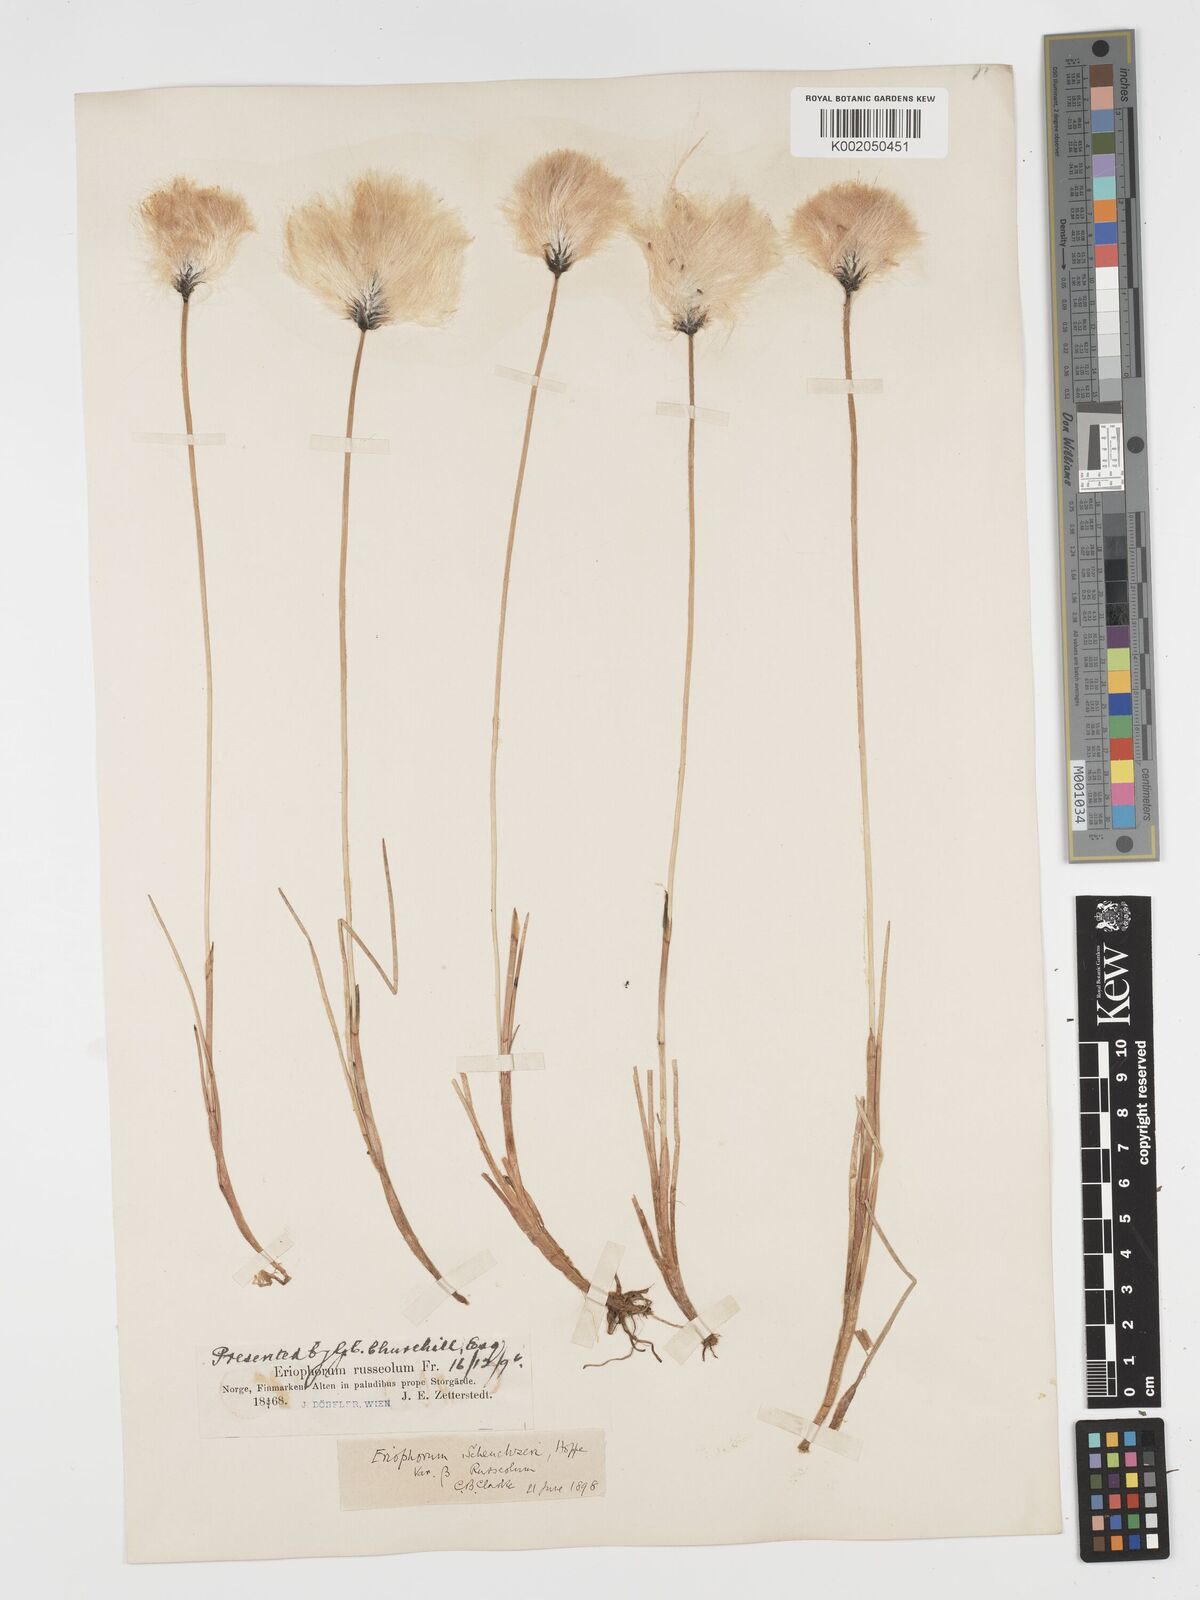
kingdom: Plantae
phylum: Tracheophyta
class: Liliopsida
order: Poales
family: Cyperaceae
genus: Eriophorum
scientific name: Eriophorum scheuchzeri
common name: Scheuchzer's cottongrass
